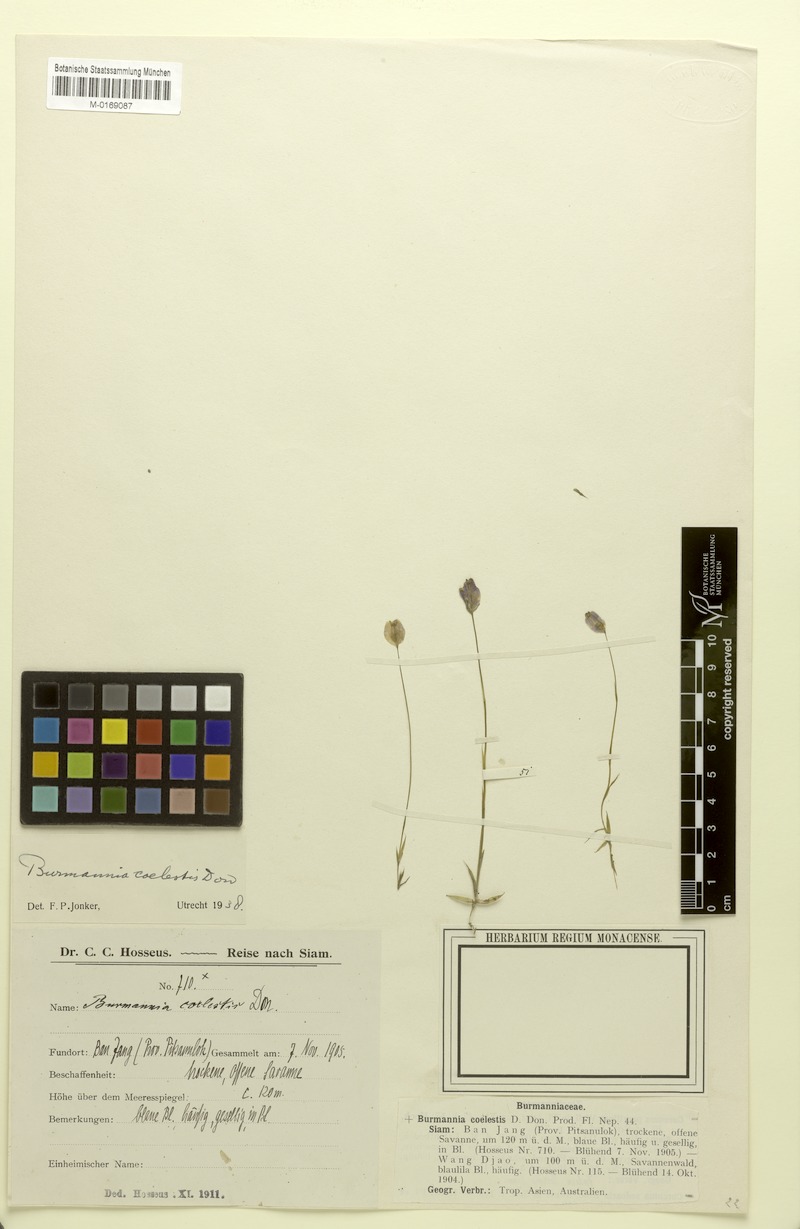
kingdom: Plantae
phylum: Tracheophyta
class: Liliopsida
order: Dioscoreales
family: Burmanniaceae
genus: Burmannia
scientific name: Burmannia coelestis
